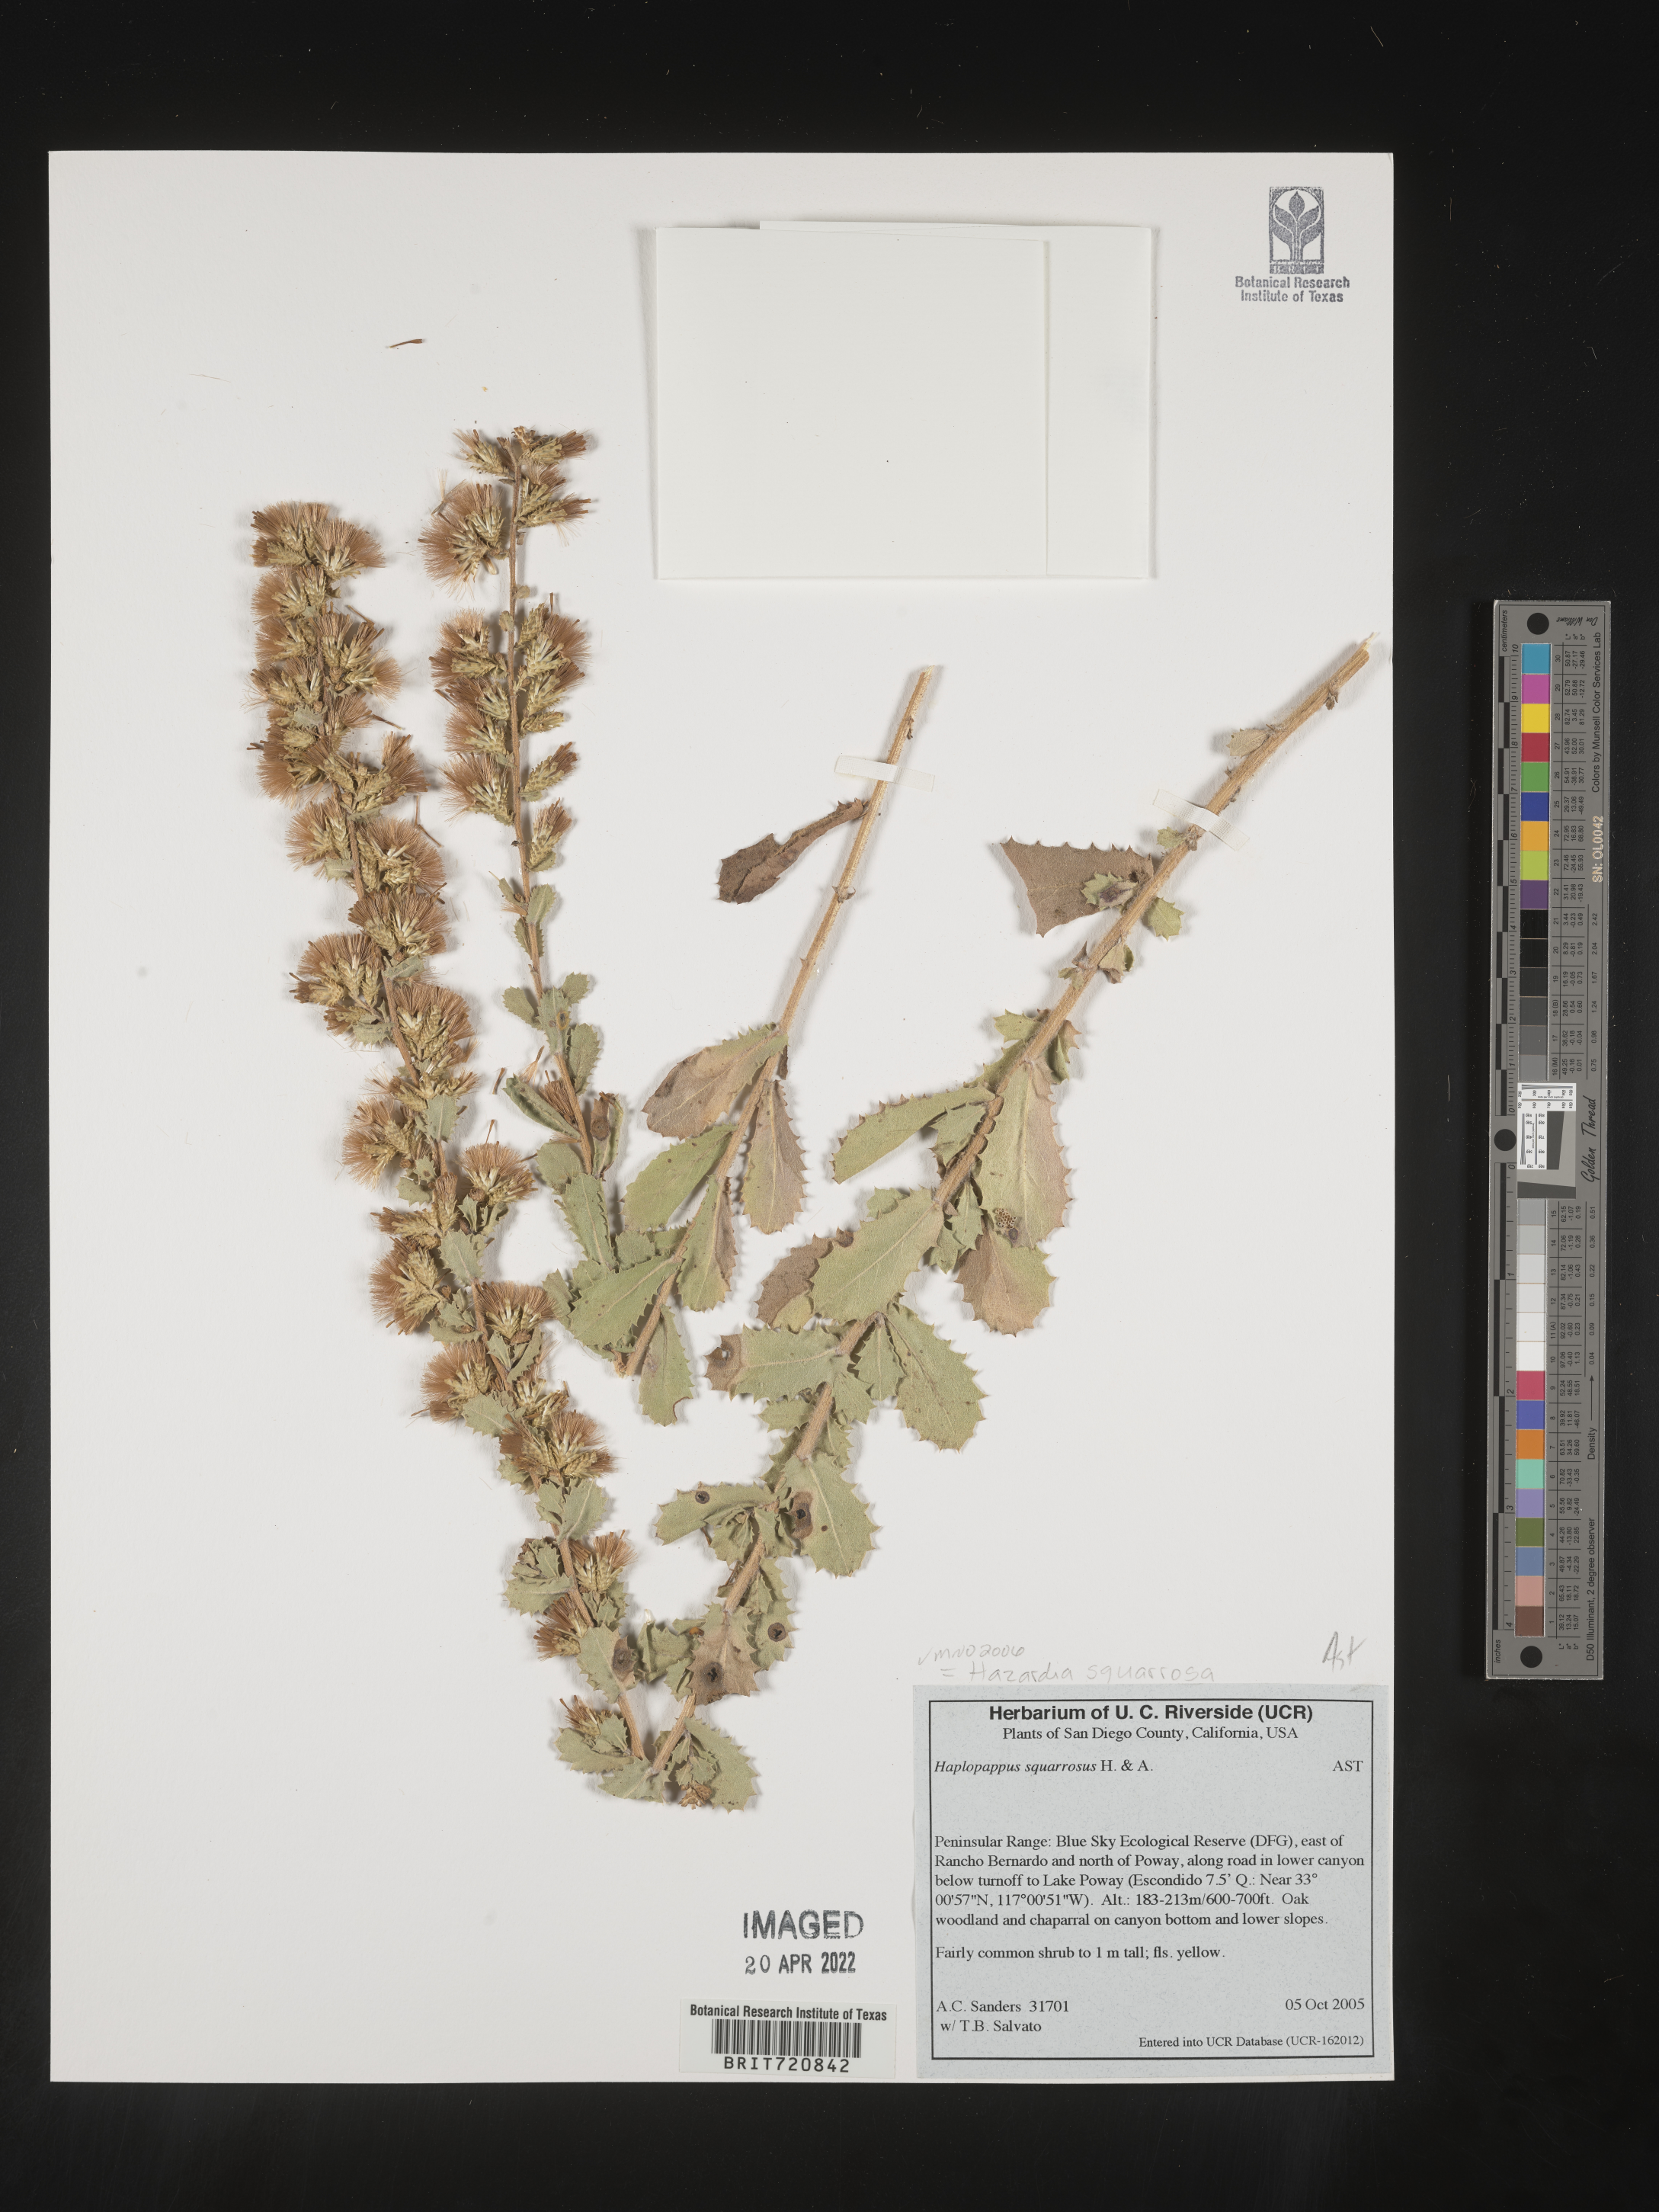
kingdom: Plantae
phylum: Tracheophyta
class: Magnoliopsida
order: Asterales
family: Asteraceae
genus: Hazardia
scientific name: Hazardia squarrosa
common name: Saw-tooth goldenbush
